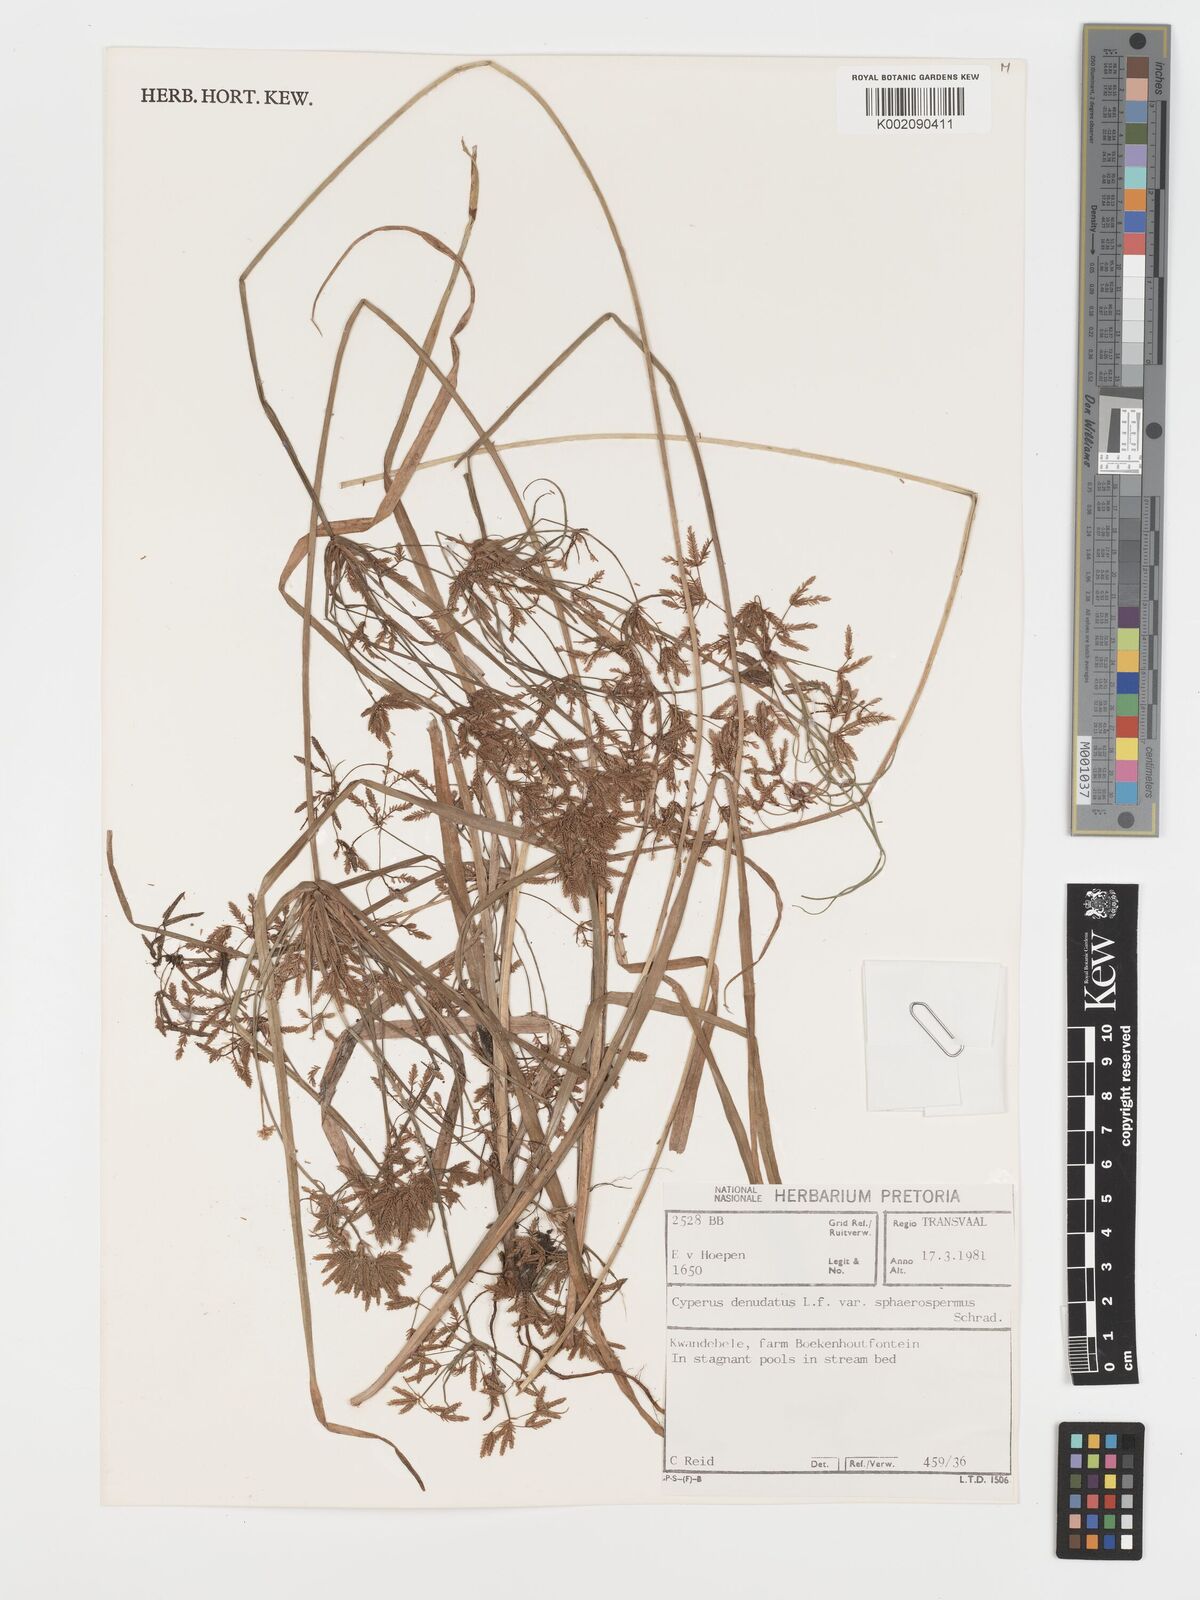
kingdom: Plantae
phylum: Tracheophyta
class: Liliopsida
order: Poales
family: Cyperaceae
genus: Cyperus
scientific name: Cyperus denudatus
